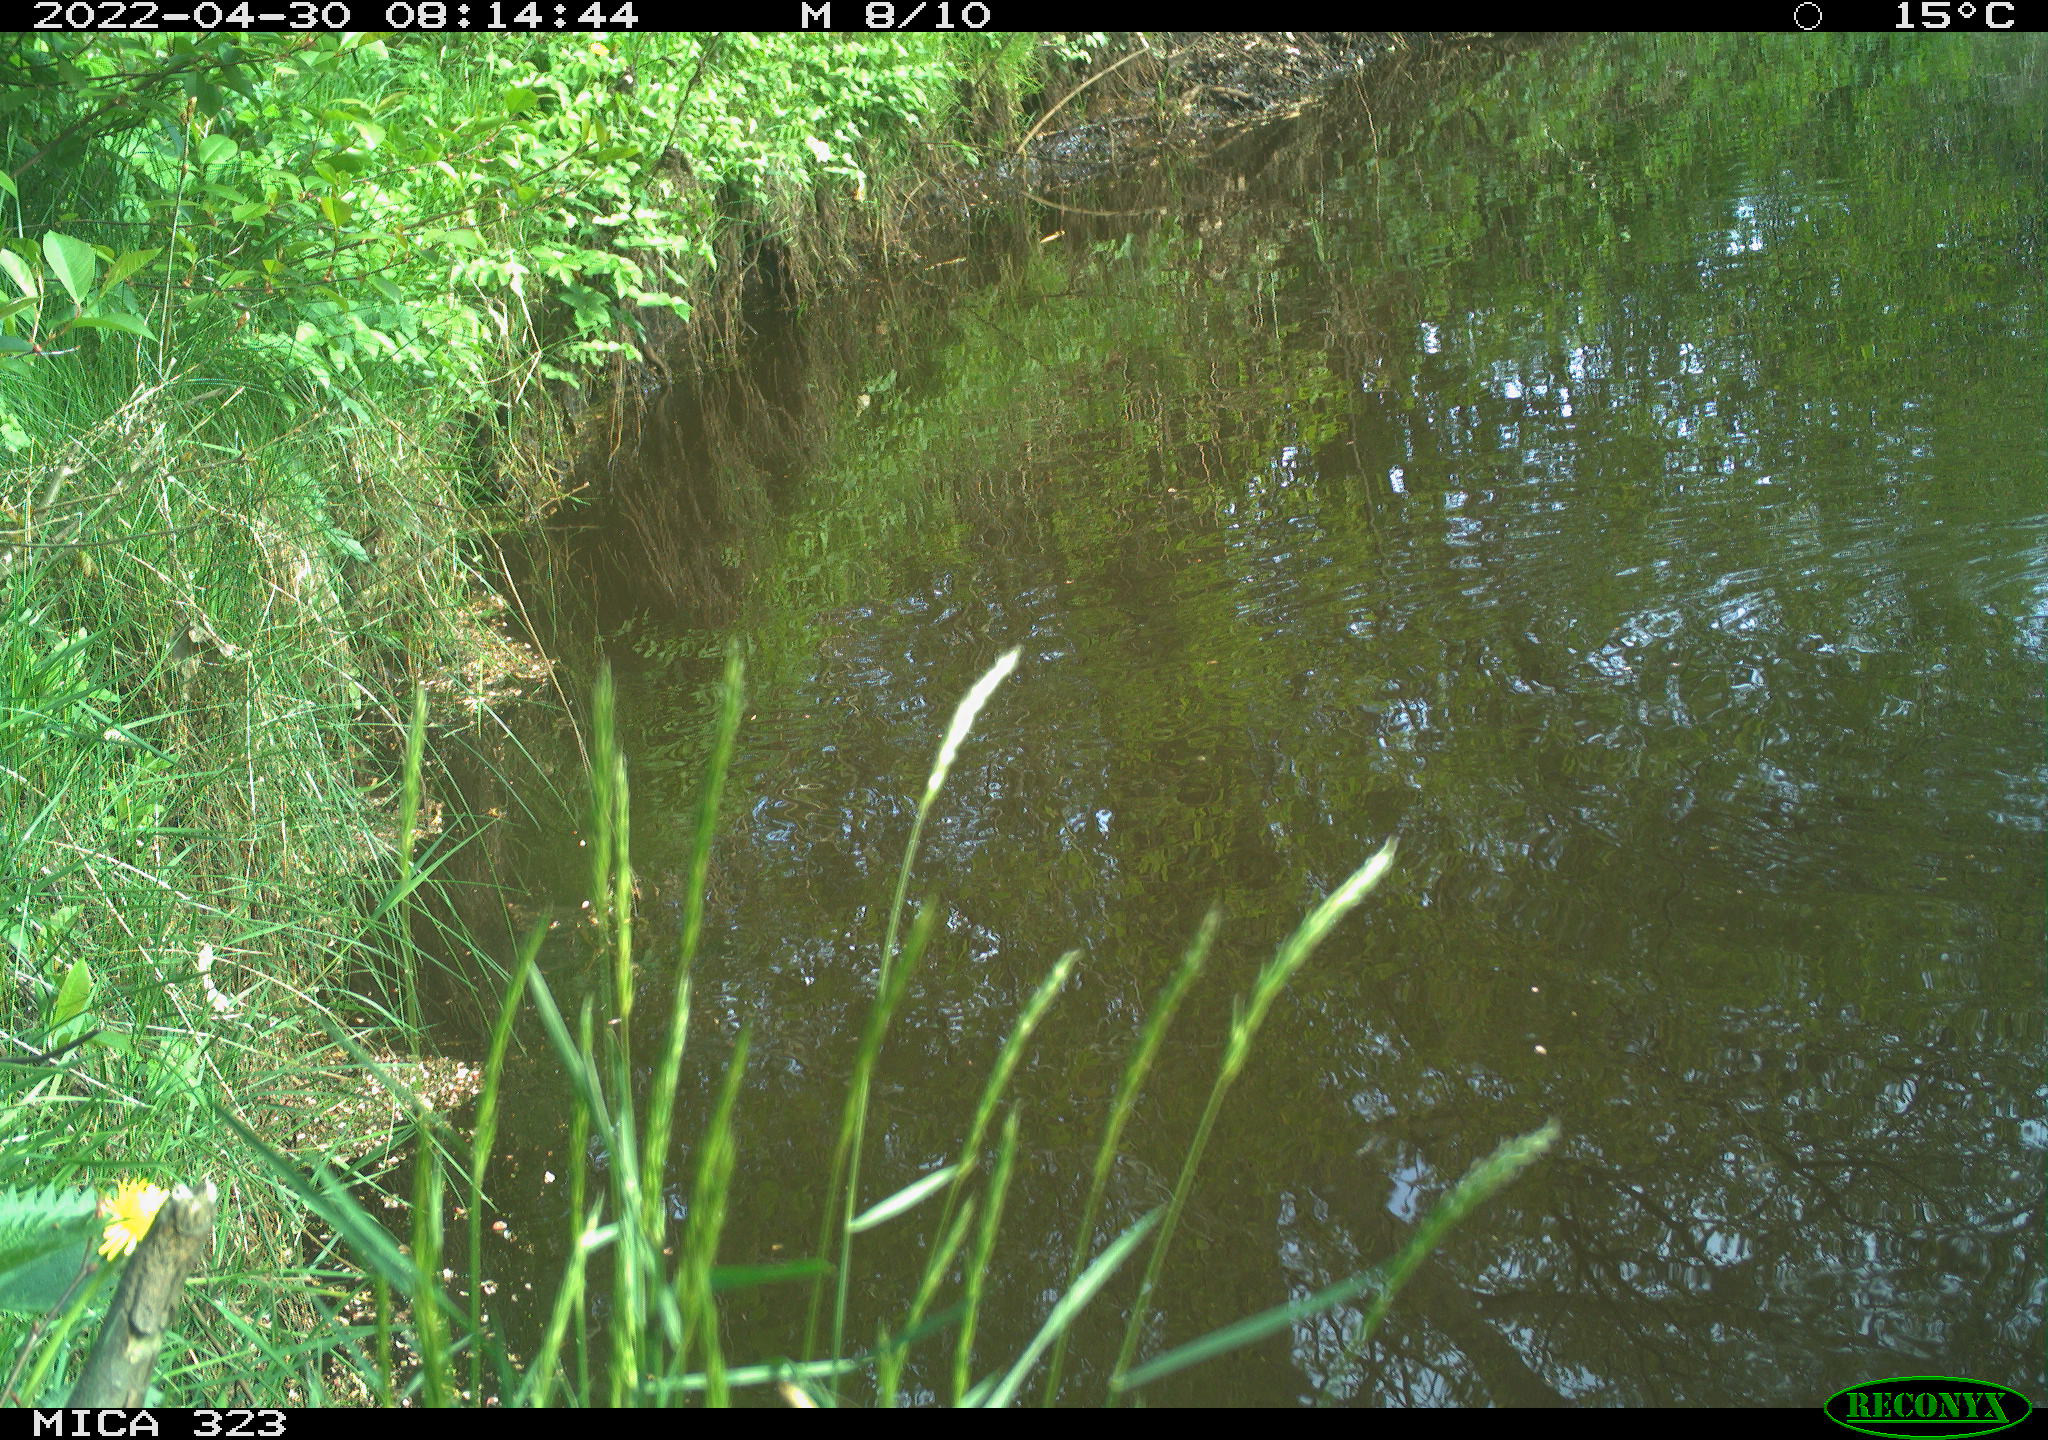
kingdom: Animalia
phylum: Chordata
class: Aves
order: Gruiformes
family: Rallidae
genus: Gallinula
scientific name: Gallinula chloropus
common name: Common moorhen
